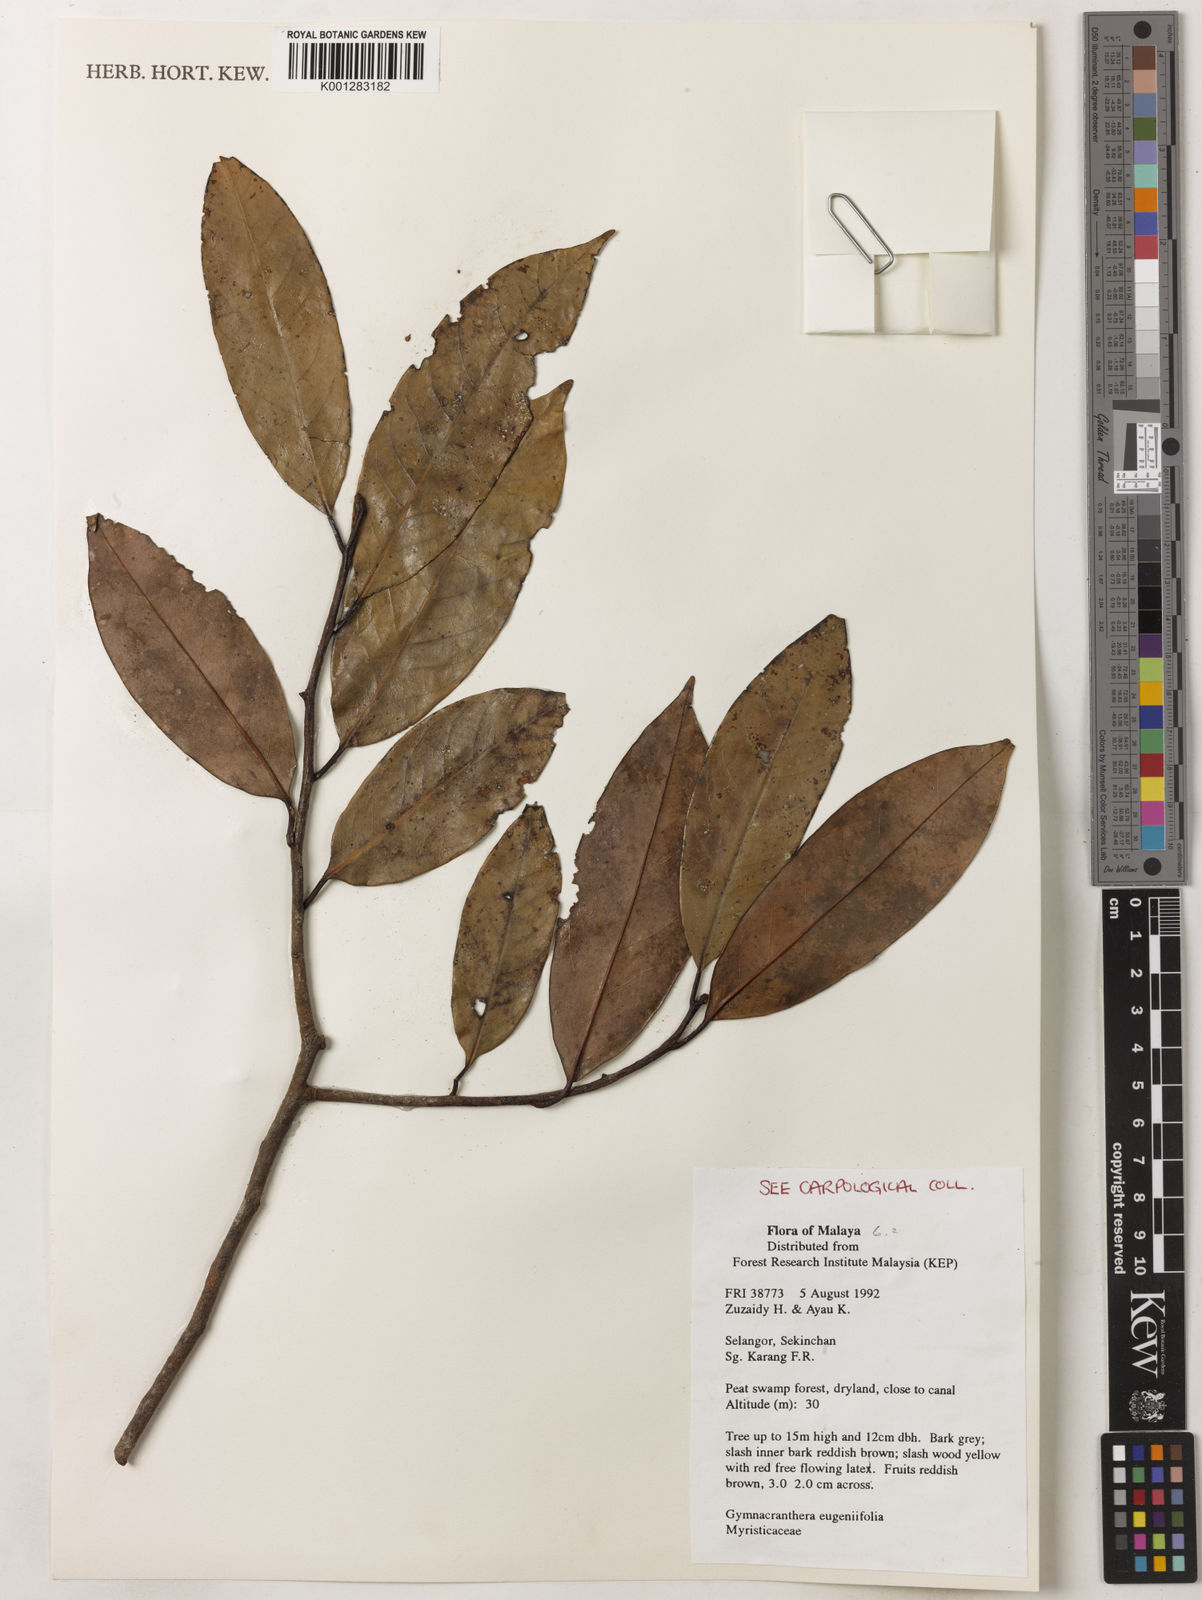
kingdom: Plantae
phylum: Tracheophyta
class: Magnoliopsida
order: Magnoliales
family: Myristicaceae
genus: Gymnacranthera
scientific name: Gymnacranthera farquhariana
